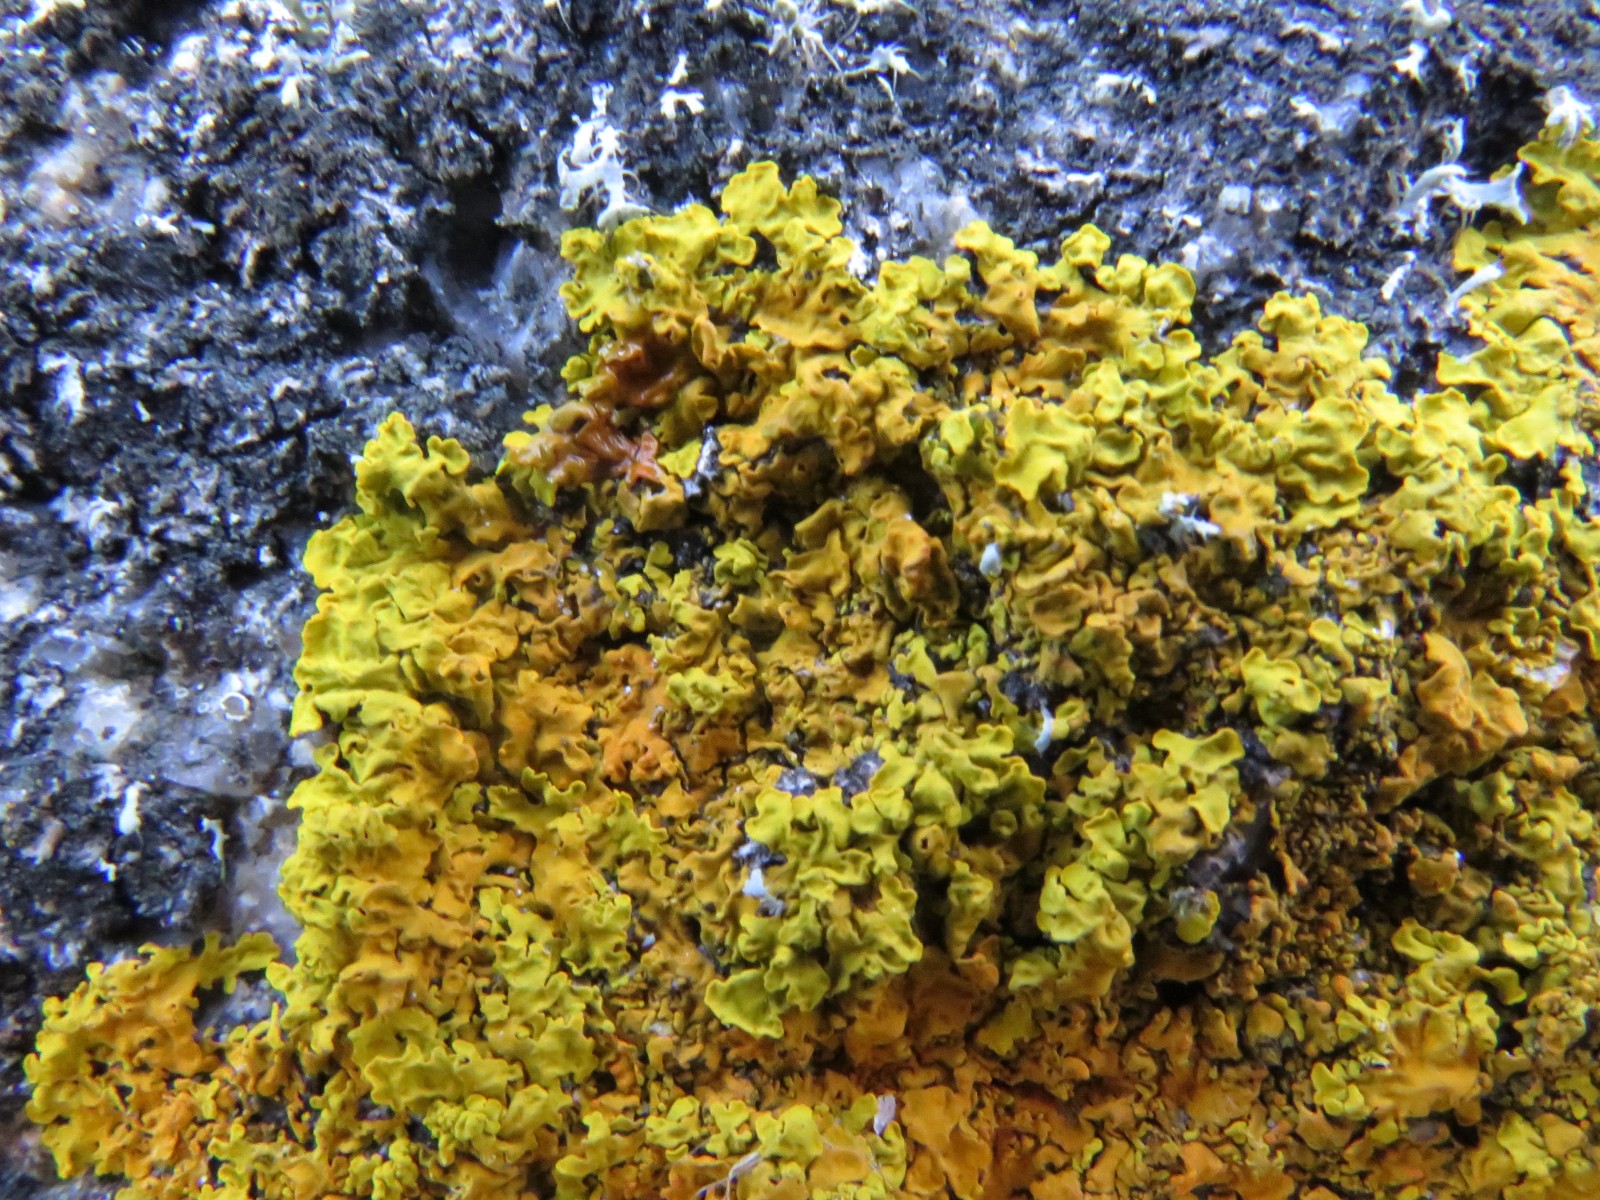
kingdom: Fungi
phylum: Ascomycota
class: Lecanoromycetes
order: Teloschistales
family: Teloschistaceae
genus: Xanthoria
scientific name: Xanthoria calcicola
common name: vortet væggelav
